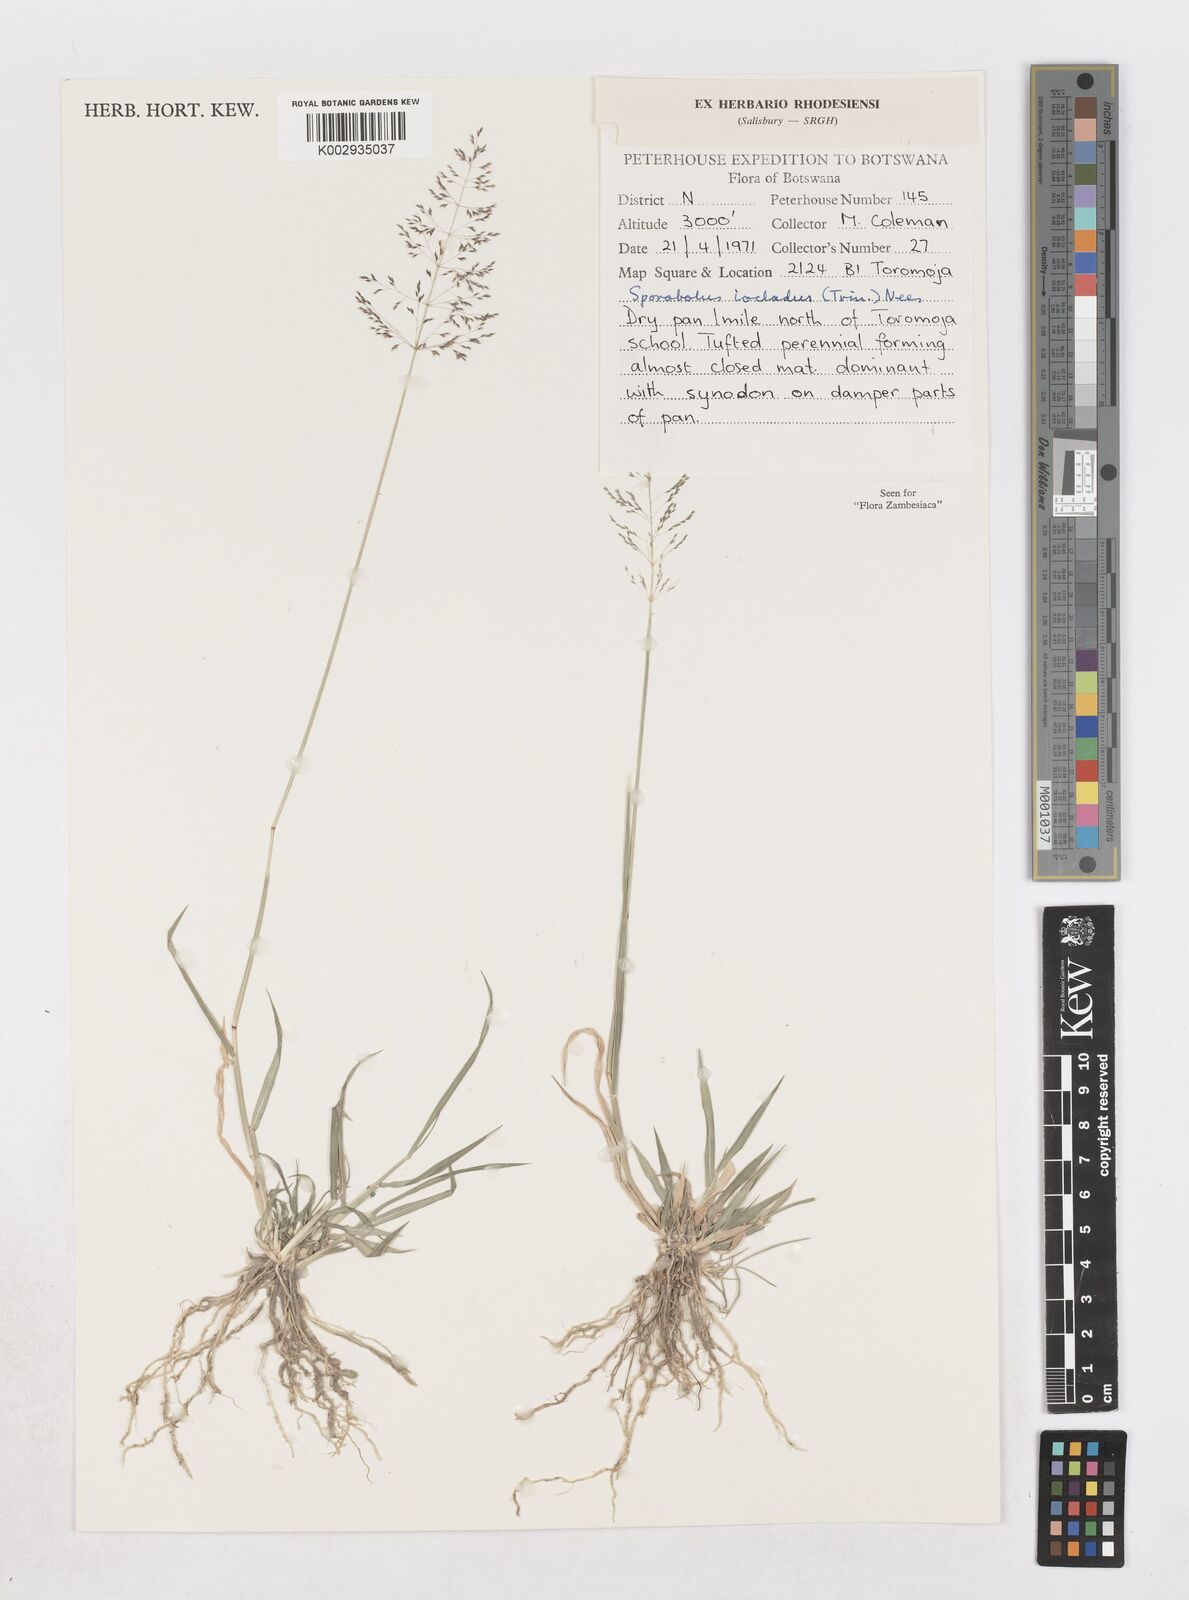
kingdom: Plantae
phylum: Tracheophyta
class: Liliopsida
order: Poales
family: Poaceae
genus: Sporobolus
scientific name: Sporobolus ioclados
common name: Pan dropseed
